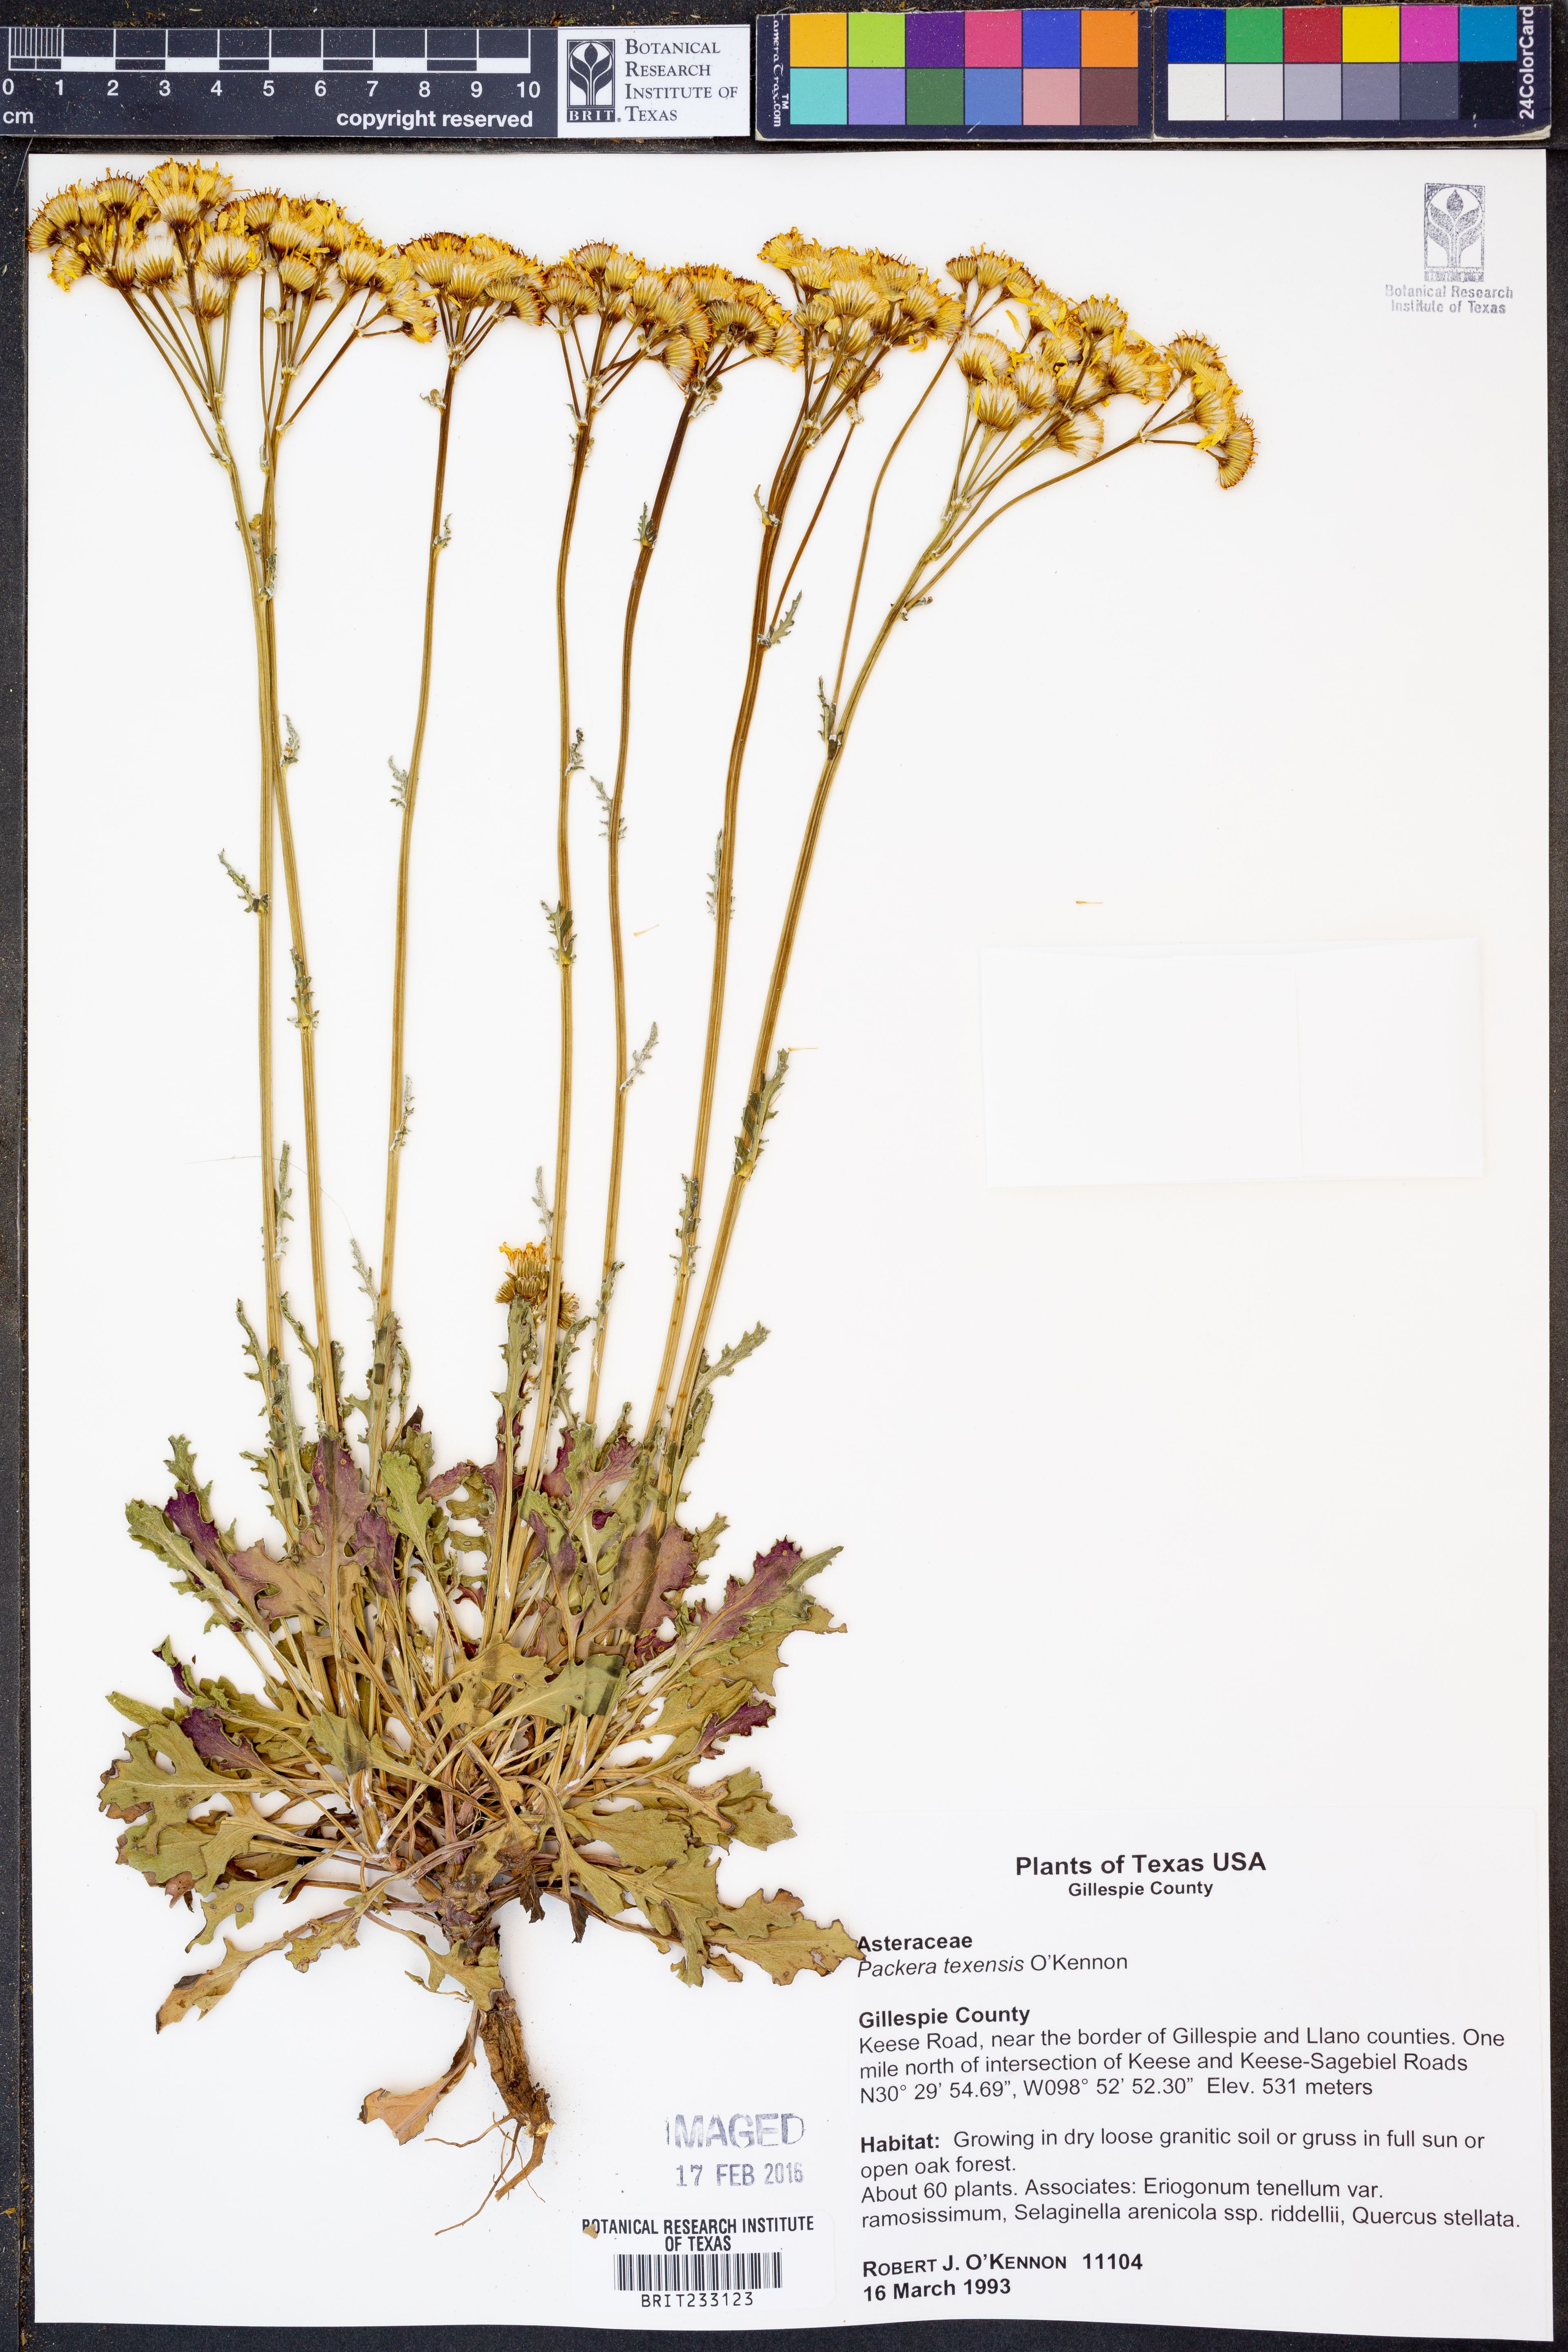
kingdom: Plantae
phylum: Tracheophyta
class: Magnoliopsida
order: Asterales
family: Asteraceae
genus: Packera
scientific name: Packera texensis
